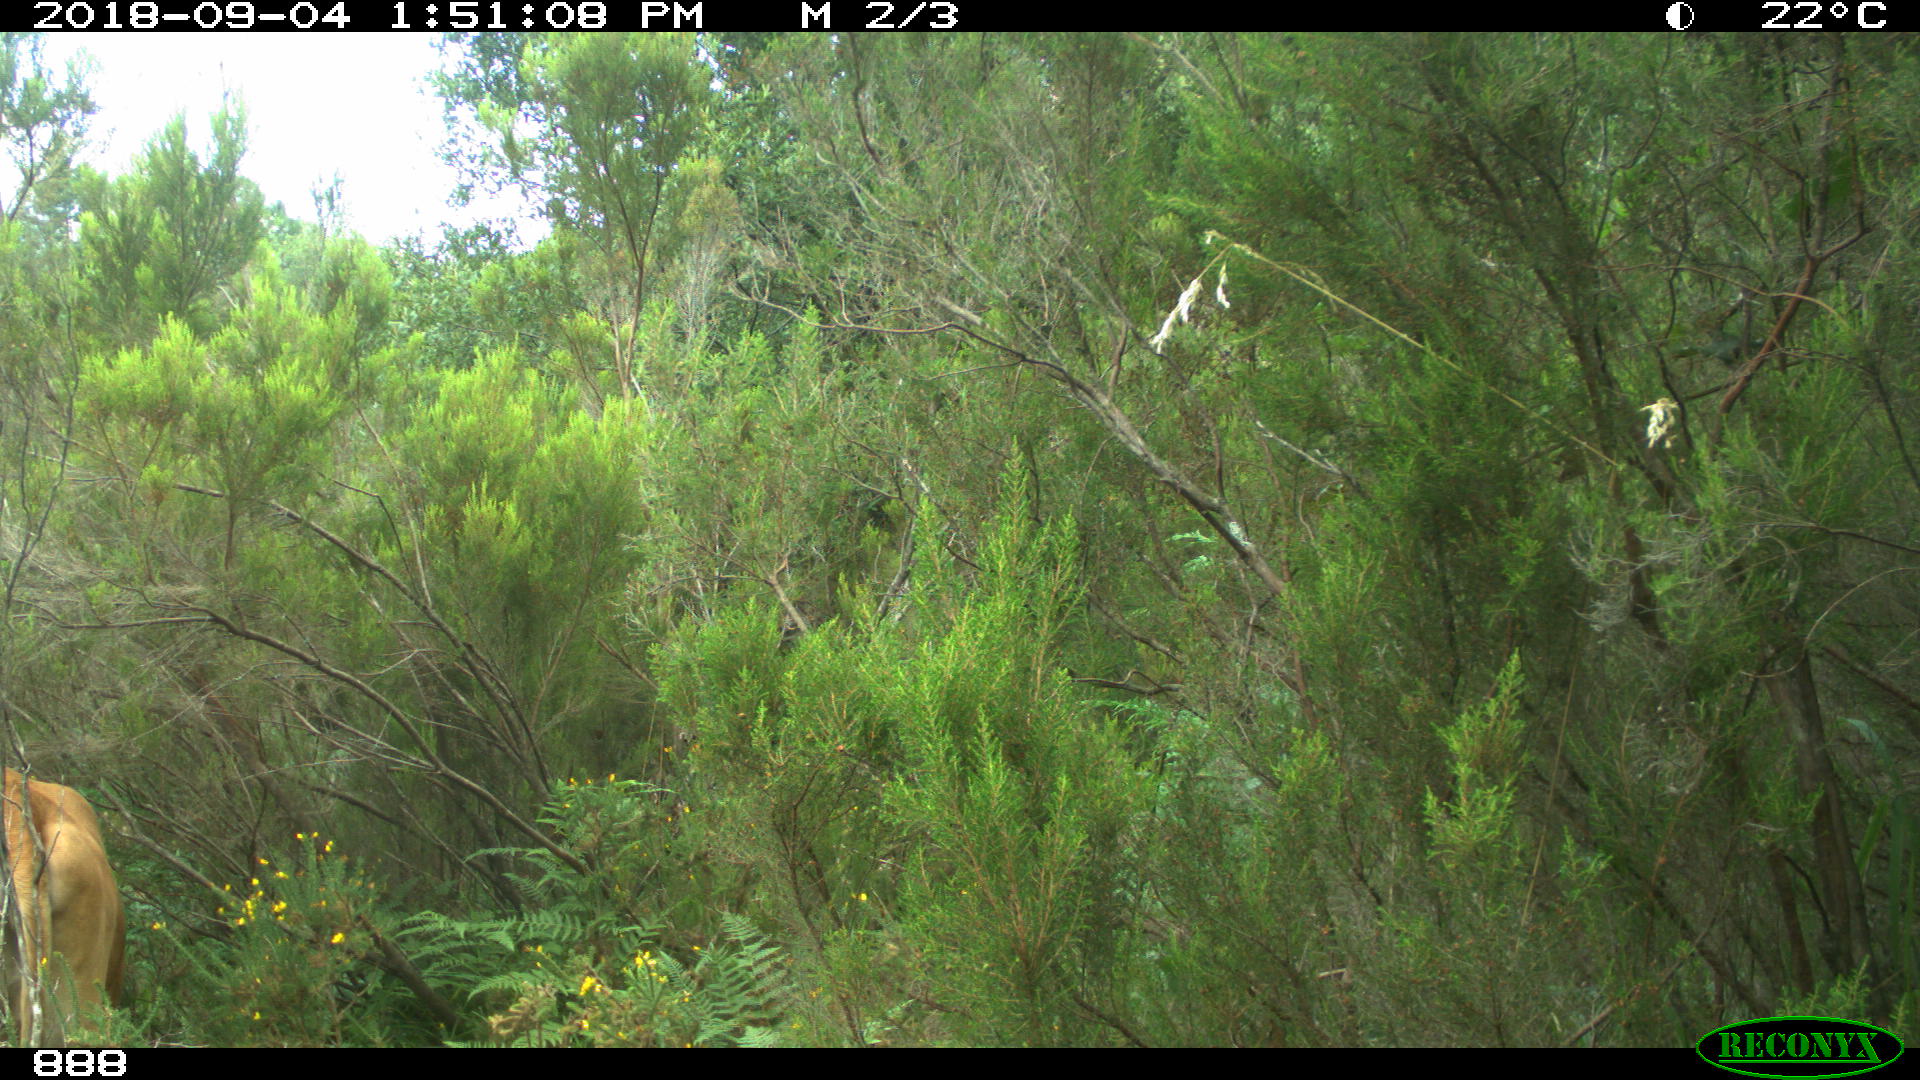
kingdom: Animalia
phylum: Chordata
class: Mammalia
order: Artiodactyla
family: Bovidae
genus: Bos
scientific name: Bos taurus
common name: Domesticated cattle
